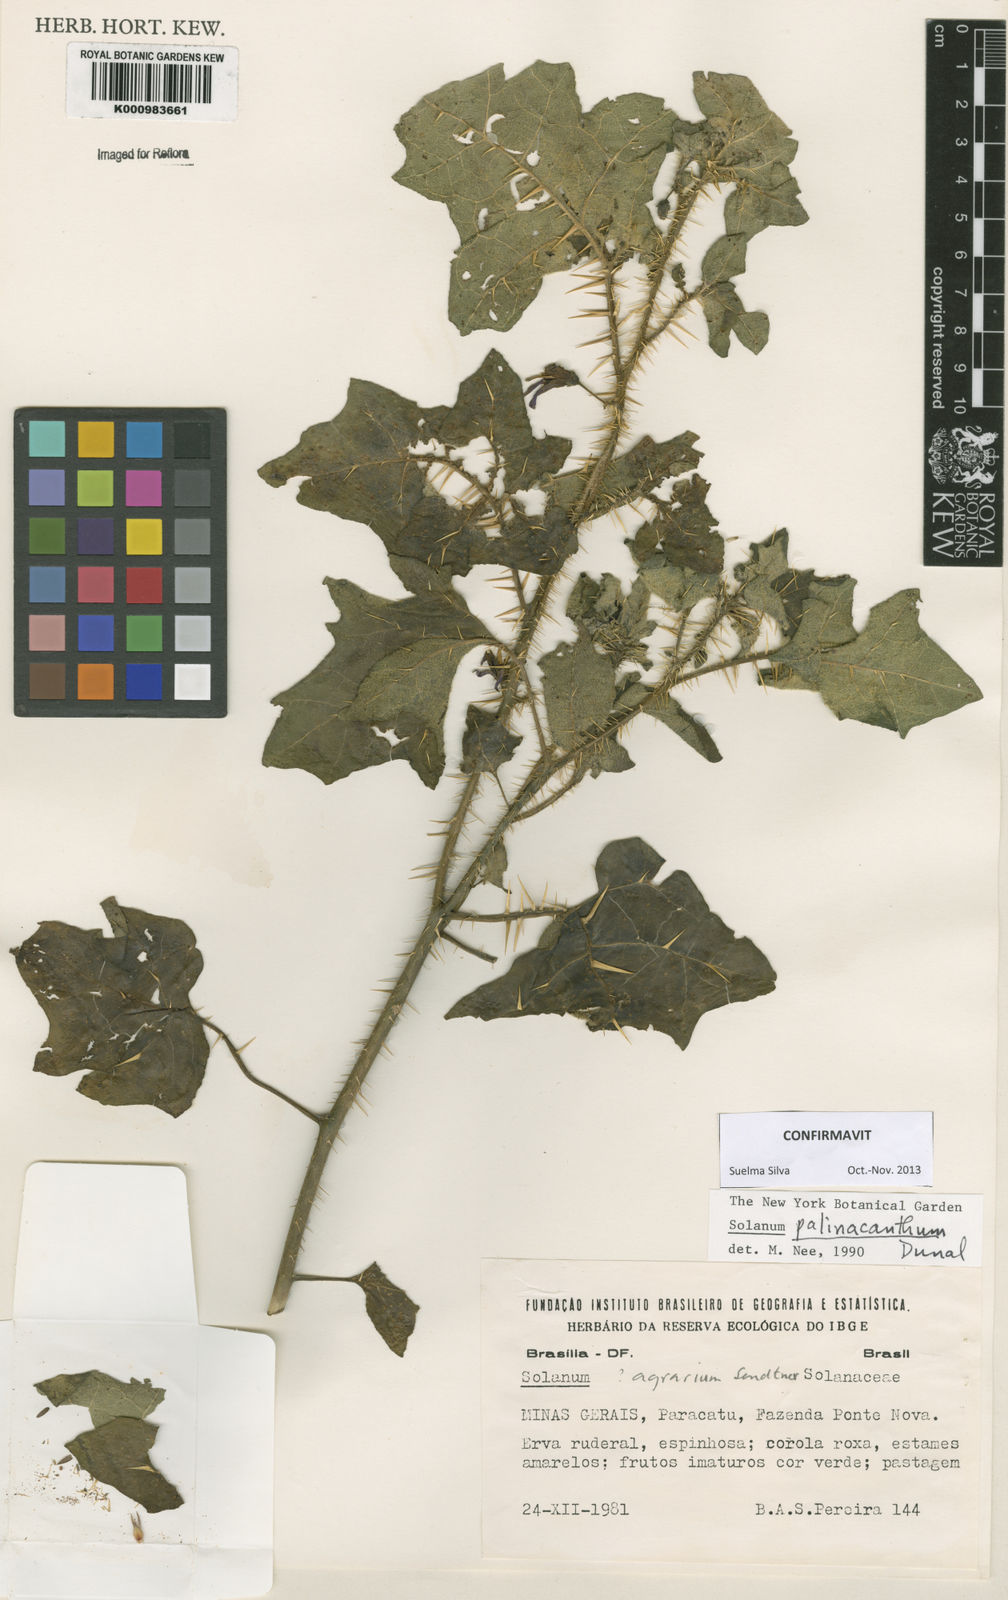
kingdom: Plantae
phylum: Tracheophyta
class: Magnoliopsida
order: Solanales
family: Solanaceae
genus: Solanum
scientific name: Solanum palinacanthum
